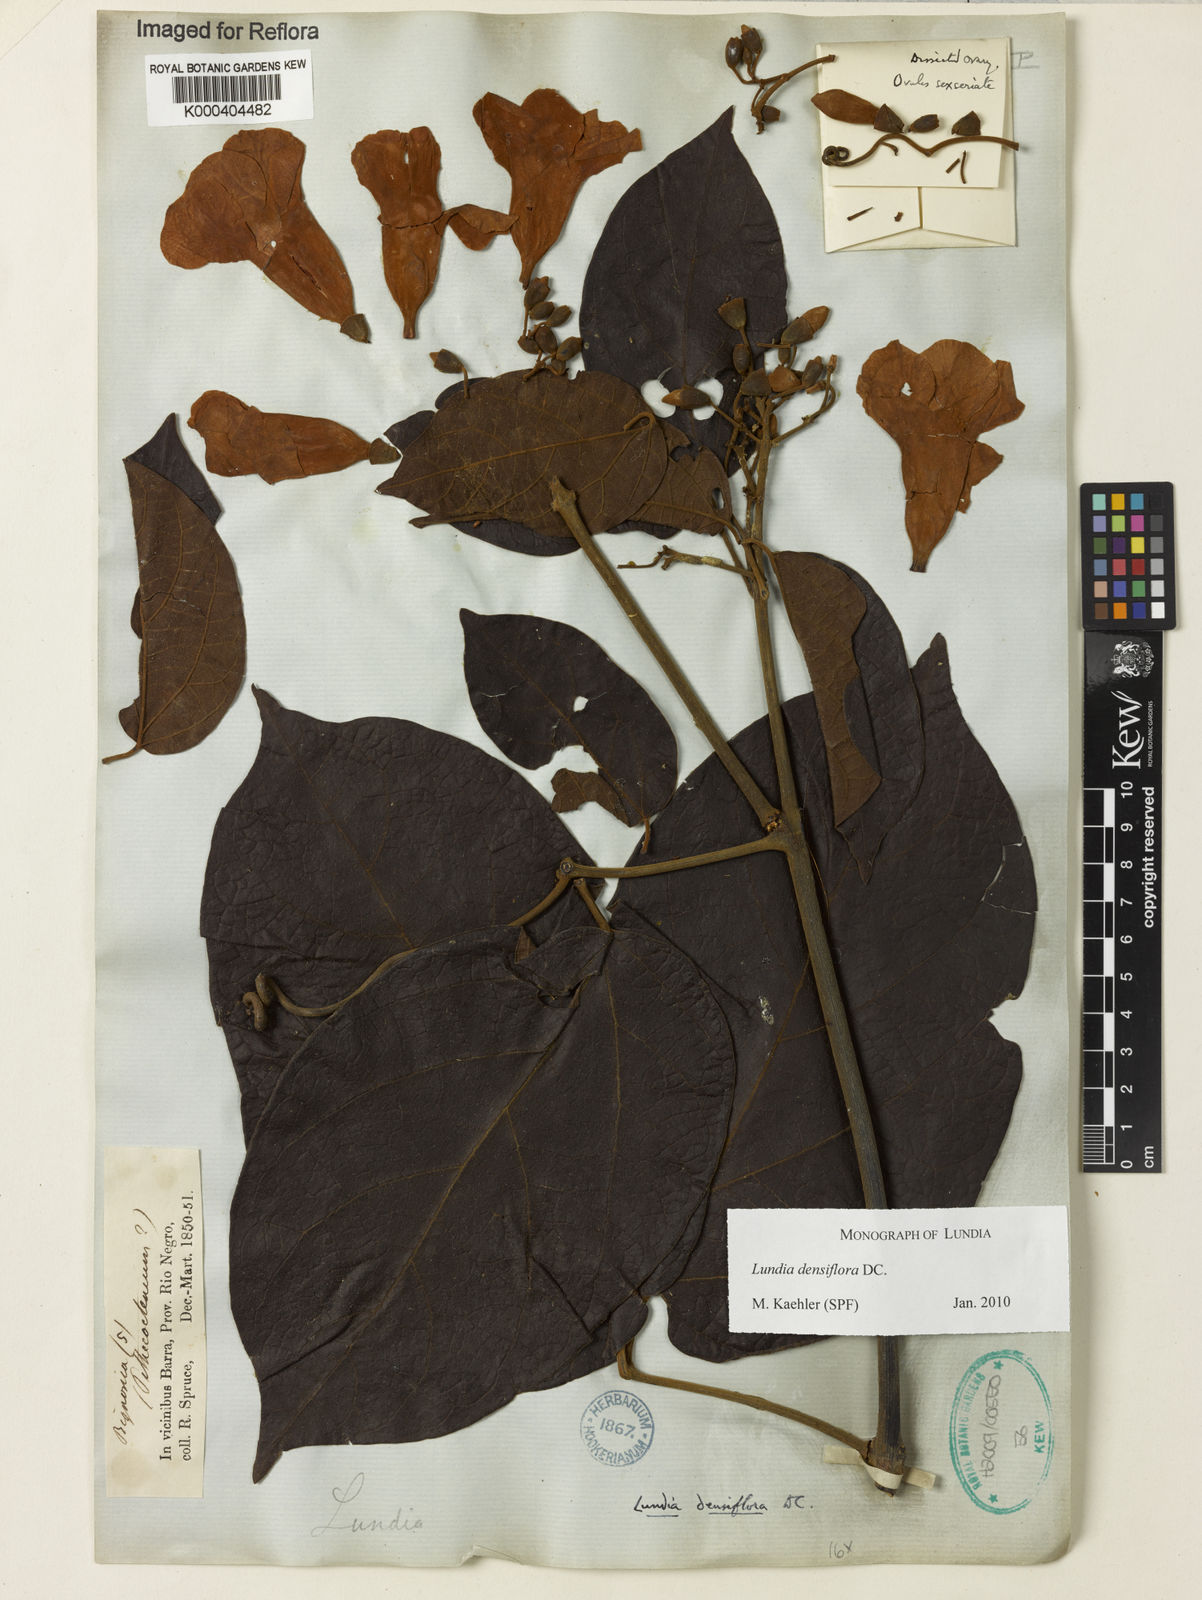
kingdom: Plantae
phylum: Tracheophyta
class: Magnoliopsida
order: Lamiales
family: Bignoniaceae
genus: Lundia
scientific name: Lundia densiflora
